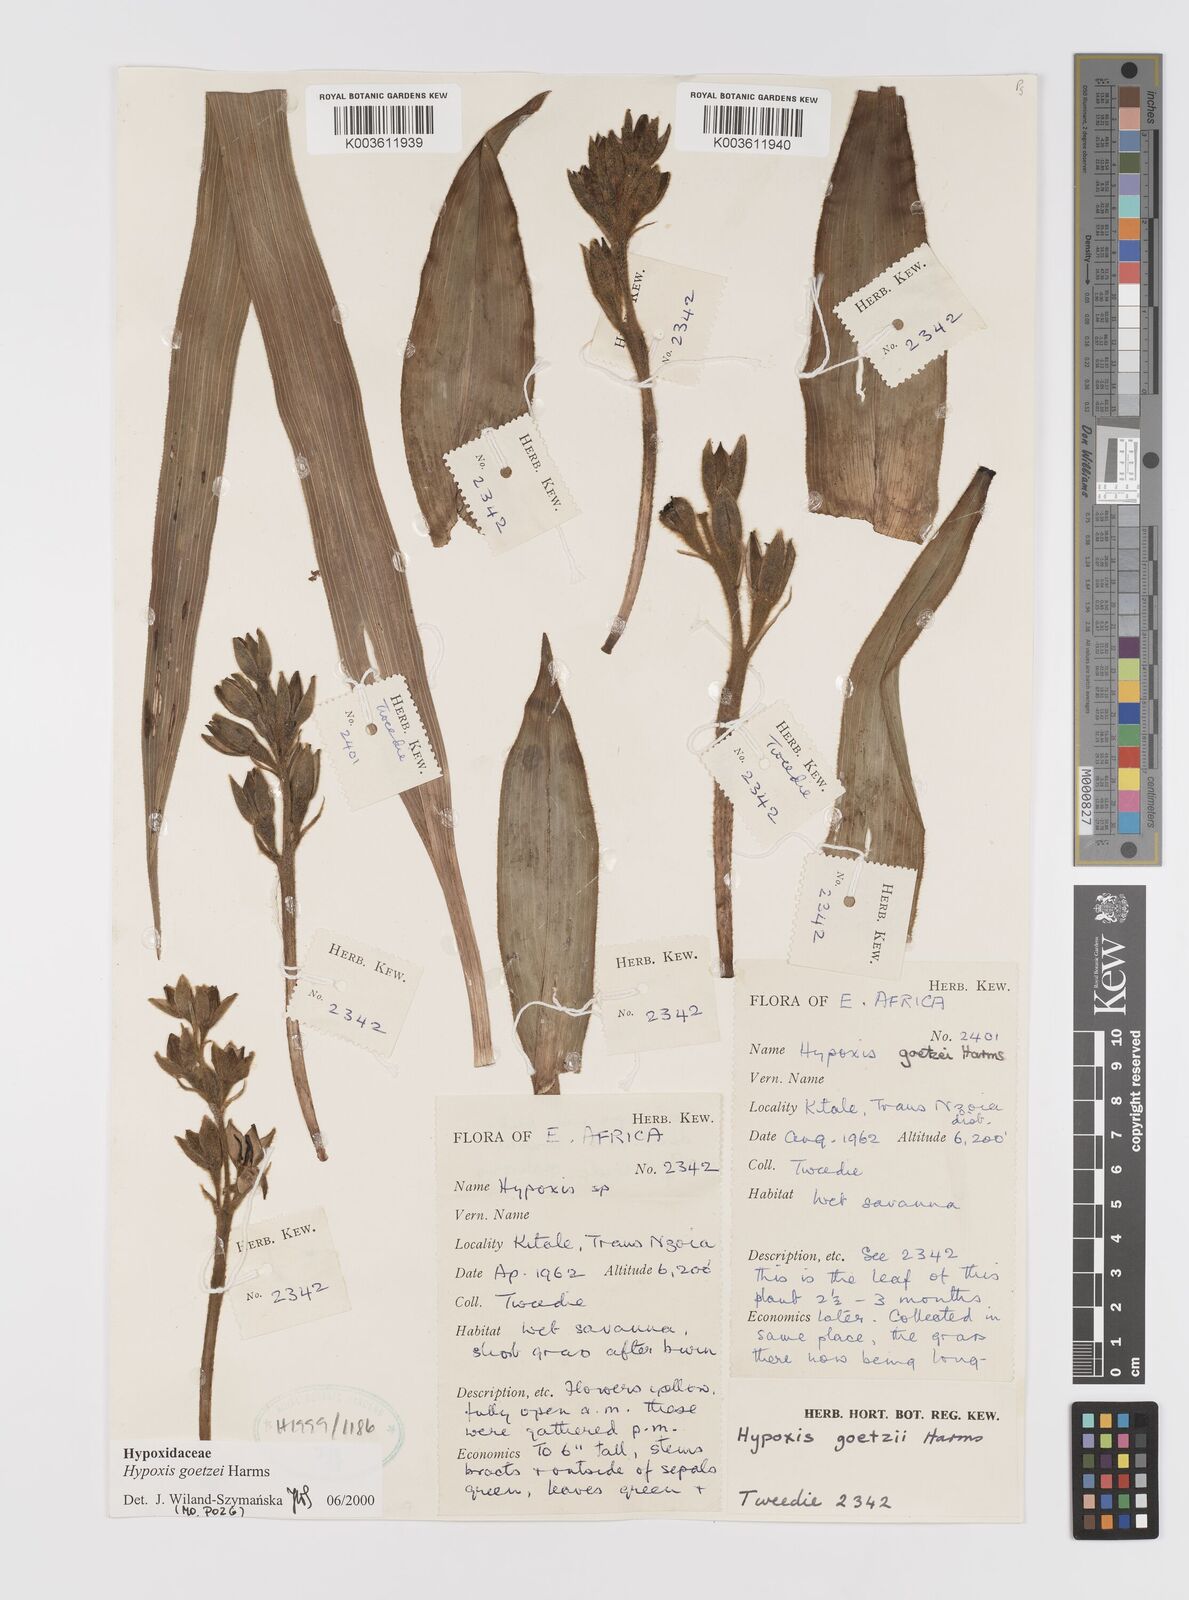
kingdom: Plantae
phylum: Tracheophyta
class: Liliopsida
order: Asparagales
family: Hypoxidaceae
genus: Hypoxis
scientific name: Hypoxis goetzei
